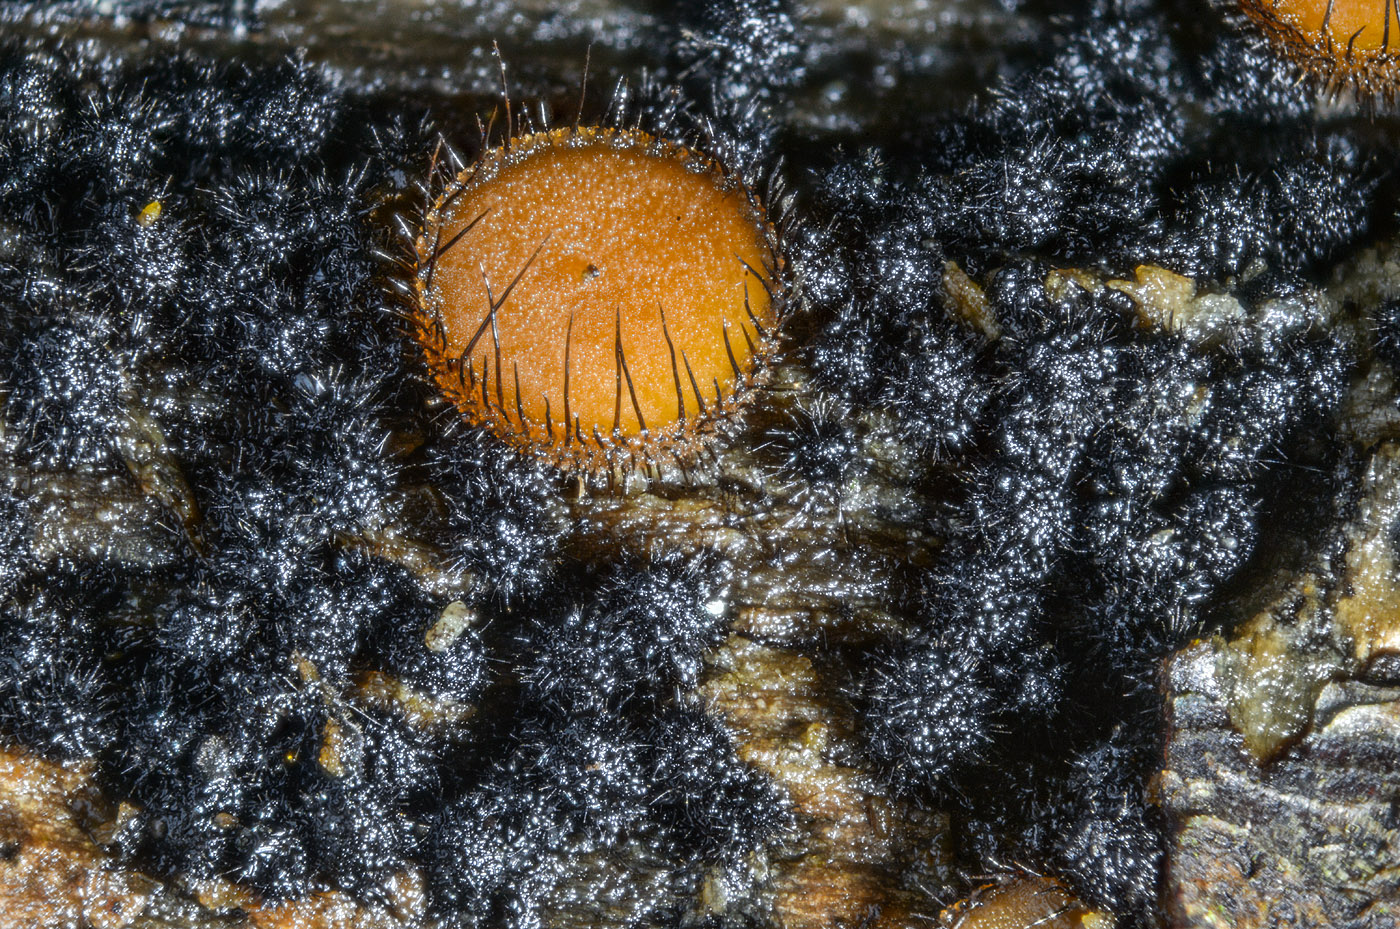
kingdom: Fungi
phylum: Ascomycota
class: Sordariomycetes
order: Sordariales
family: Lasiosphaeridaceae
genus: Lasiosphaeris
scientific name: Lasiosphaeris hirsuta
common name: sorthåret kernesvamp
